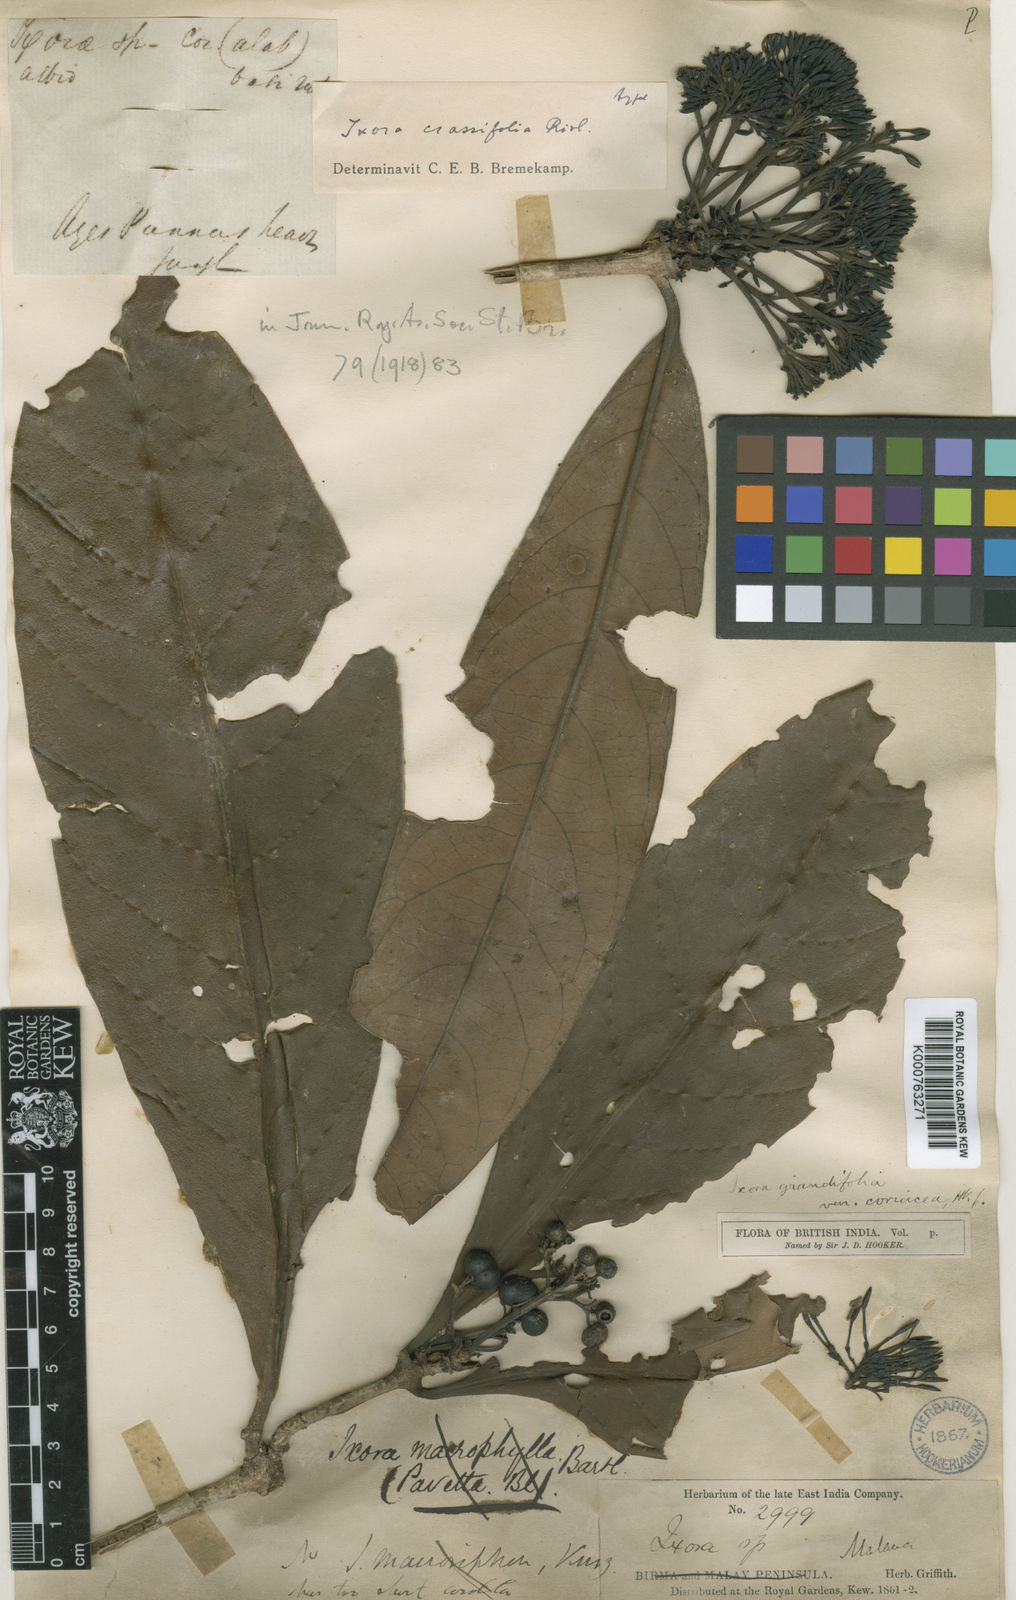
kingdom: Plantae
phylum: Tracheophyta
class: Magnoliopsida
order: Gentianales
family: Rubiaceae
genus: Ixora
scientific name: Ixora grandifolia
